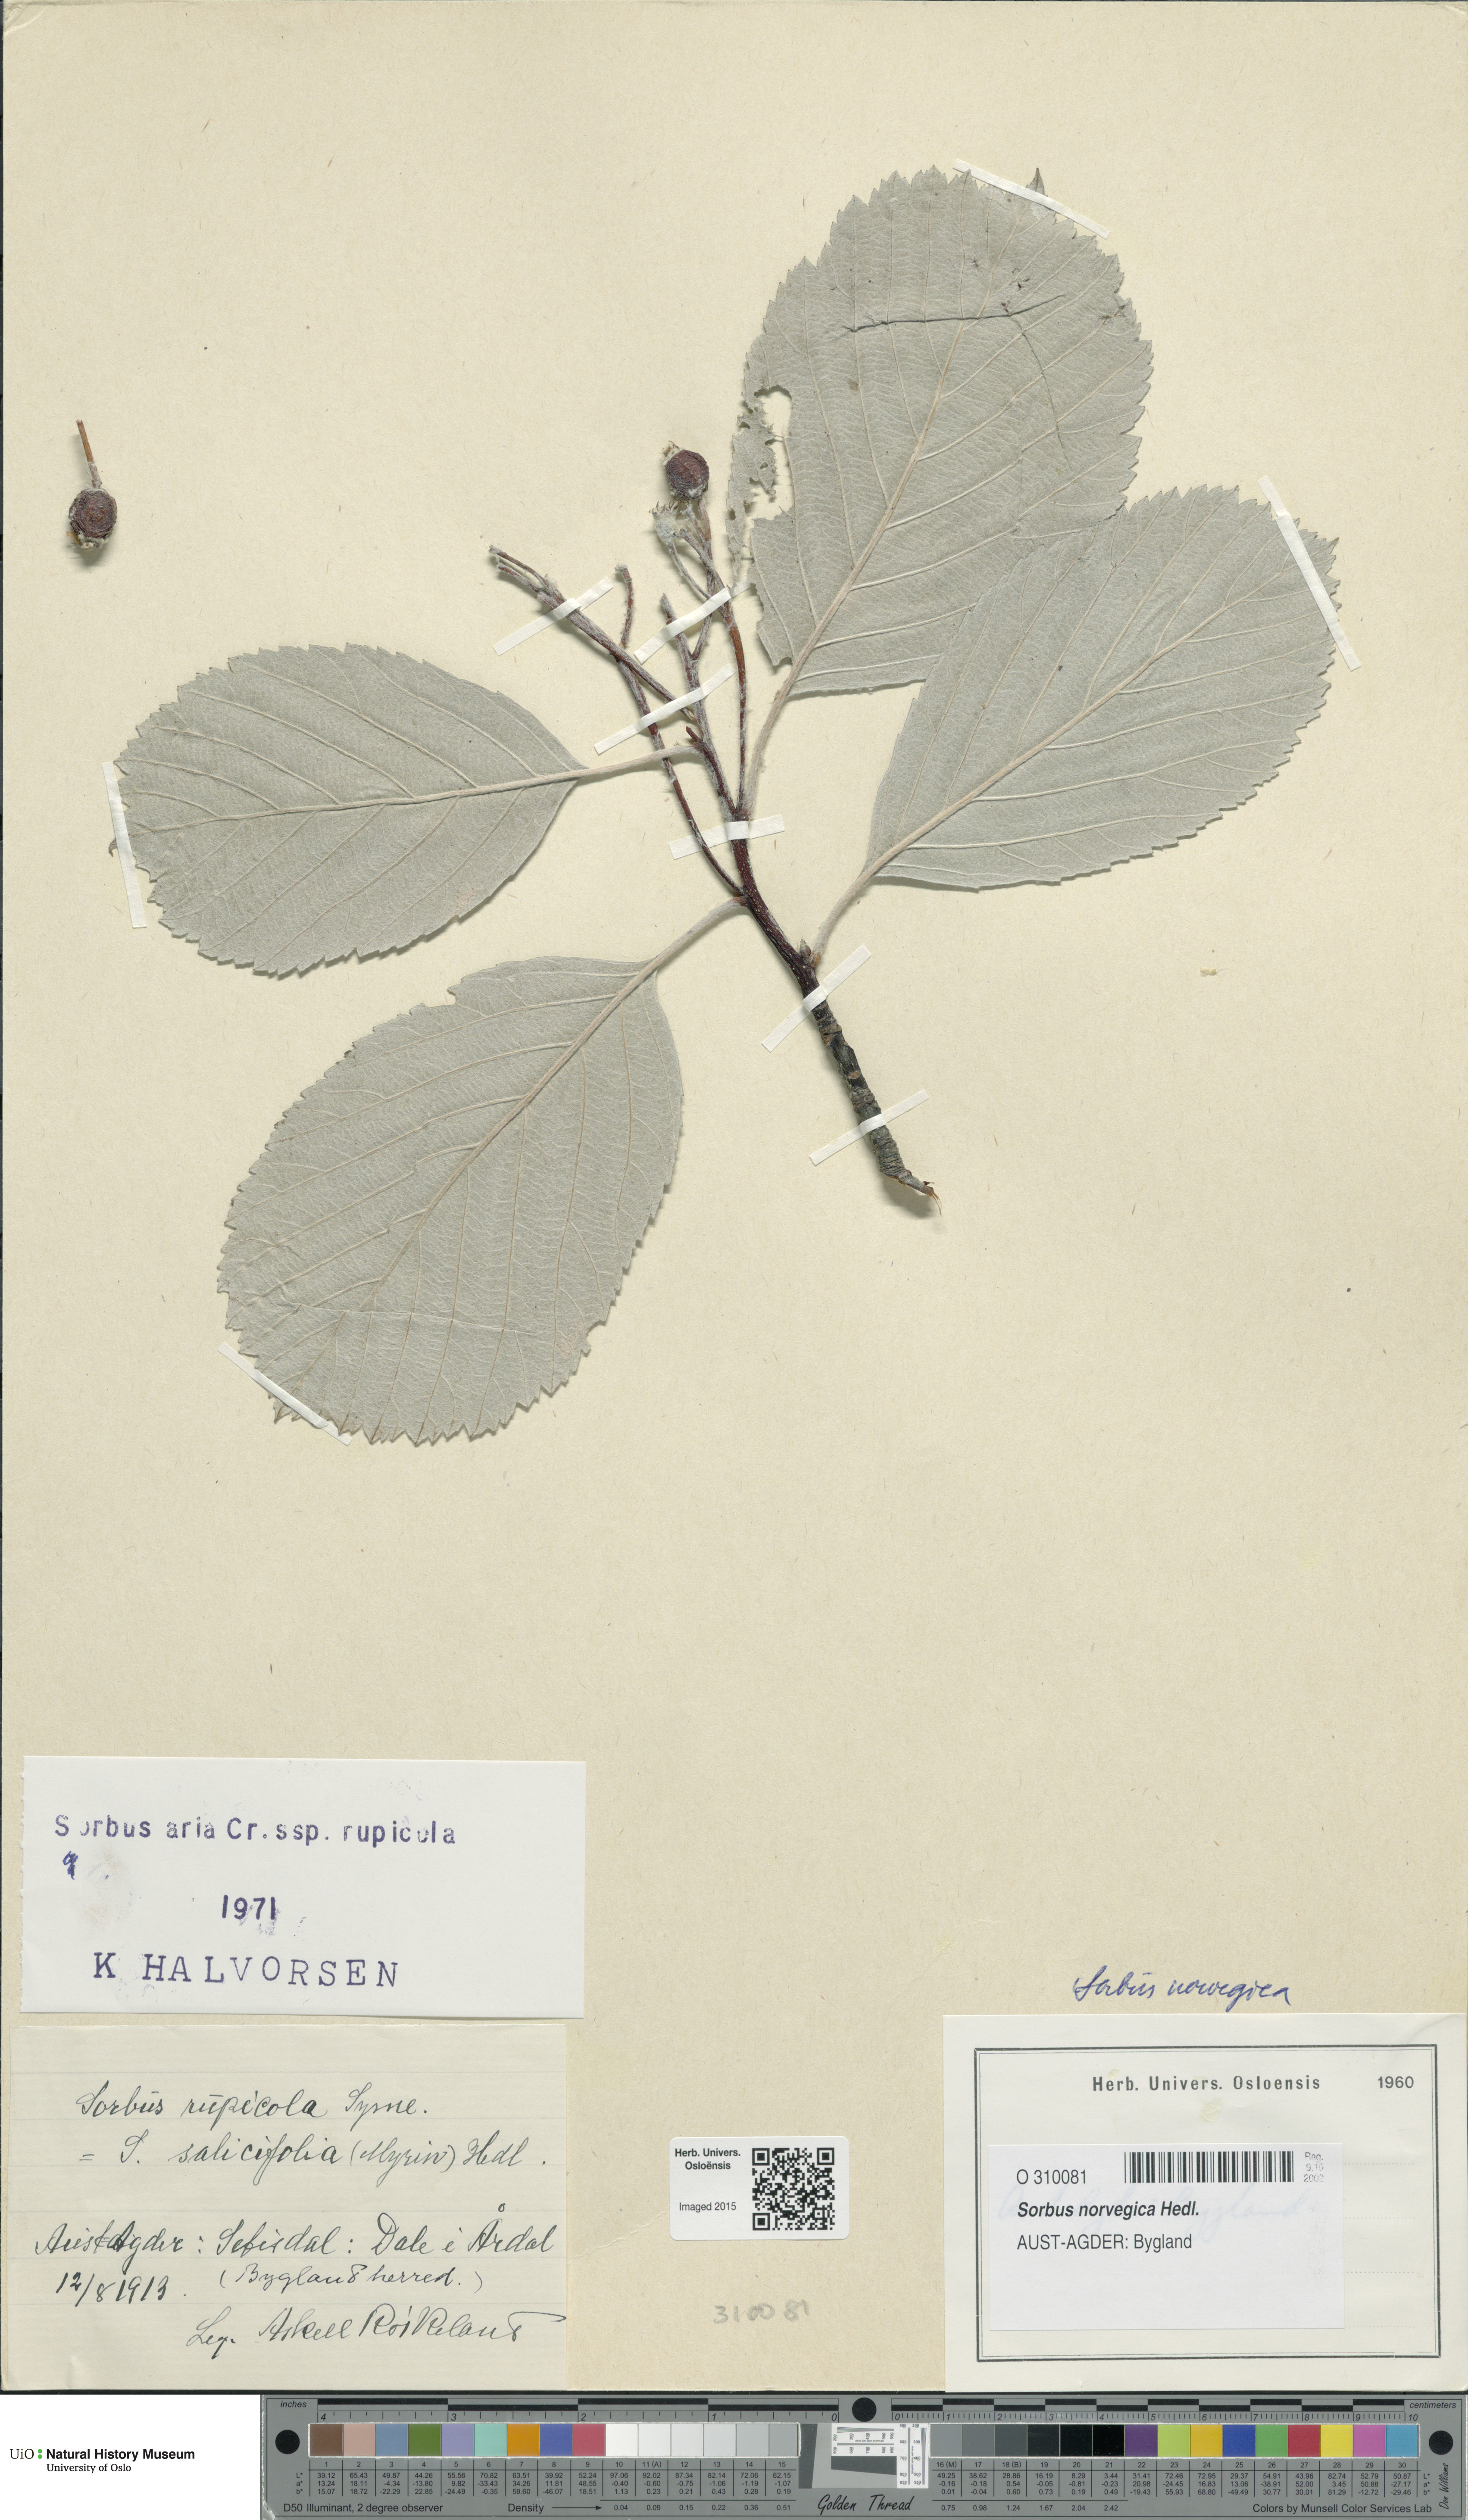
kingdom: Plantae
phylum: Tracheophyta
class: Magnoliopsida
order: Rosales
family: Rosaceae
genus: Aria
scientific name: Aria obtusifolia
